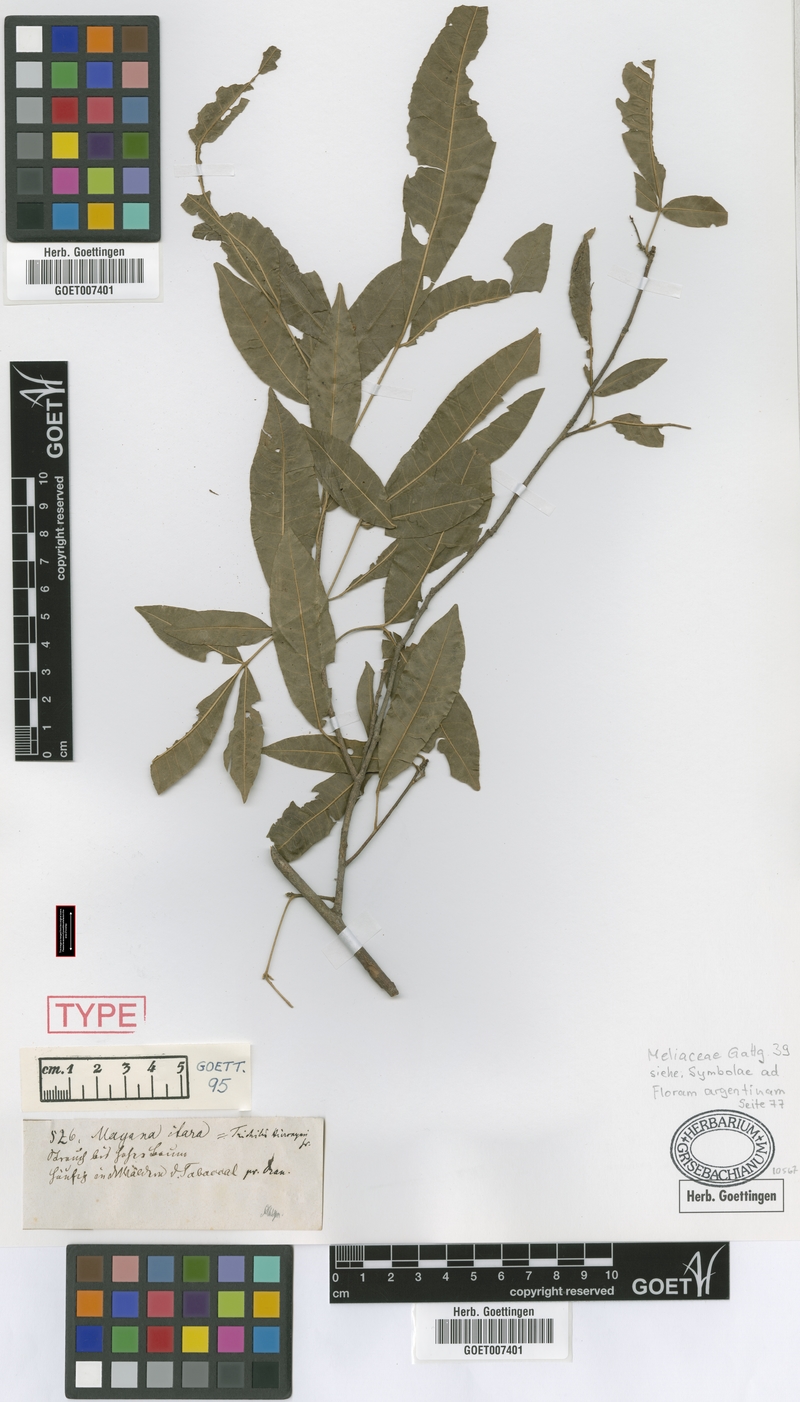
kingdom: Plantae
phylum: Tracheophyta
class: Magnoliopsida
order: Sapindales
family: Meliaceae
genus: Trichilia
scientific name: Trichilia claussenii
